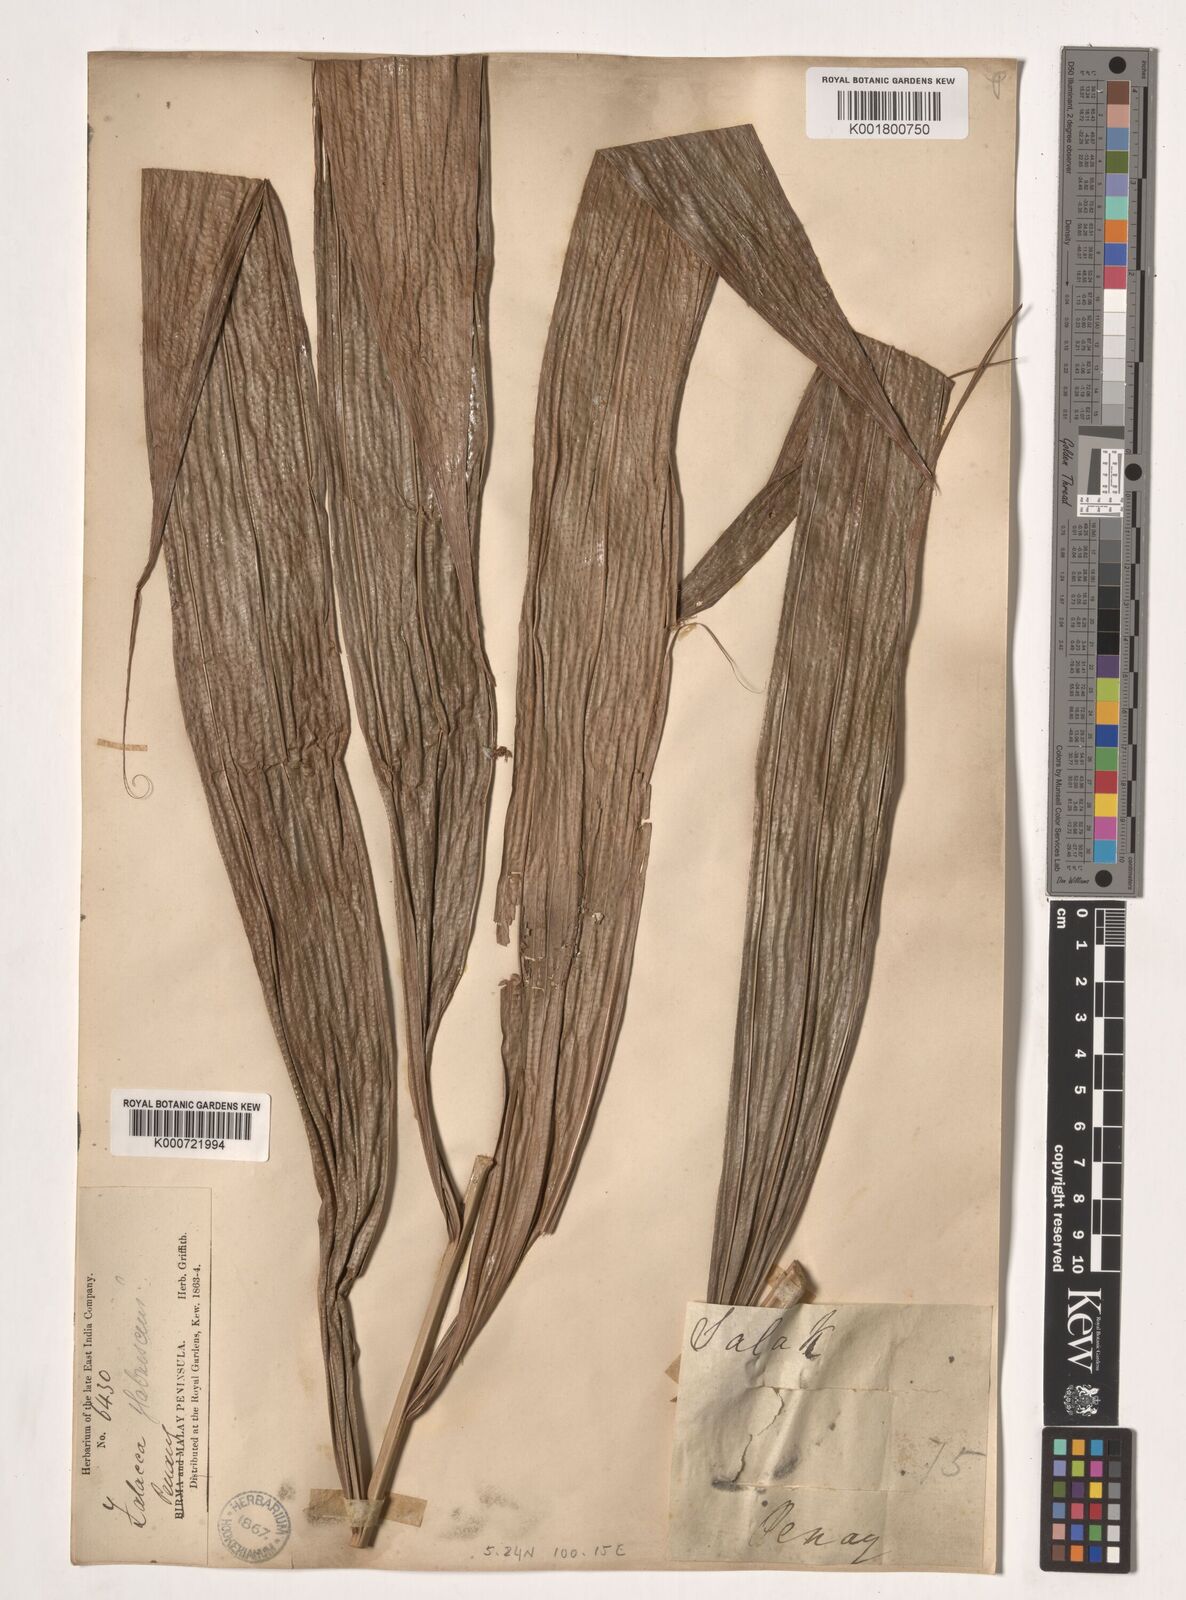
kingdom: Plantae
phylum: Tracheophyta
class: Liliopsida
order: Arecales
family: Arecaceae
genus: Salacca
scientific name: Salacca glabrescens
